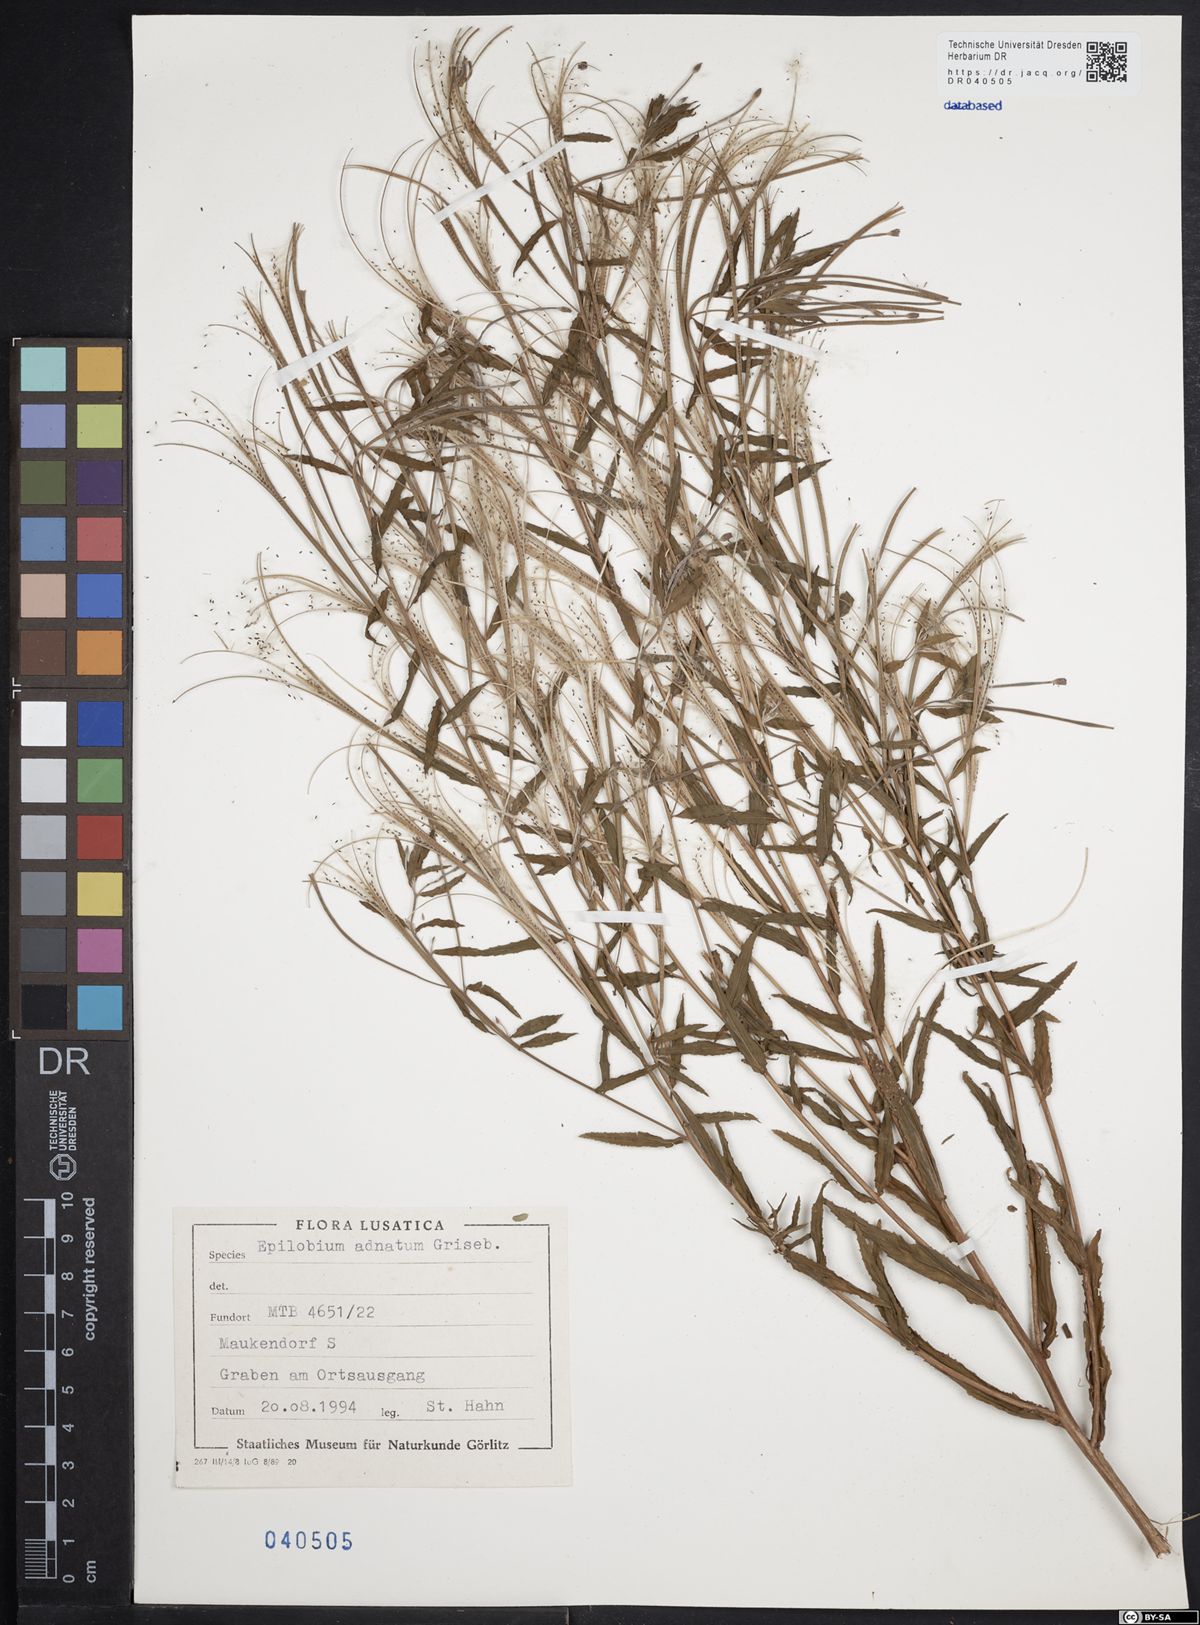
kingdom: Plantae
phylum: Tracheophyta
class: Magnoliopsida
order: Myrtales
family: Onagraceae
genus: Epilobium
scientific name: Epilobium tetragonum
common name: Square-stemmed willowherb
